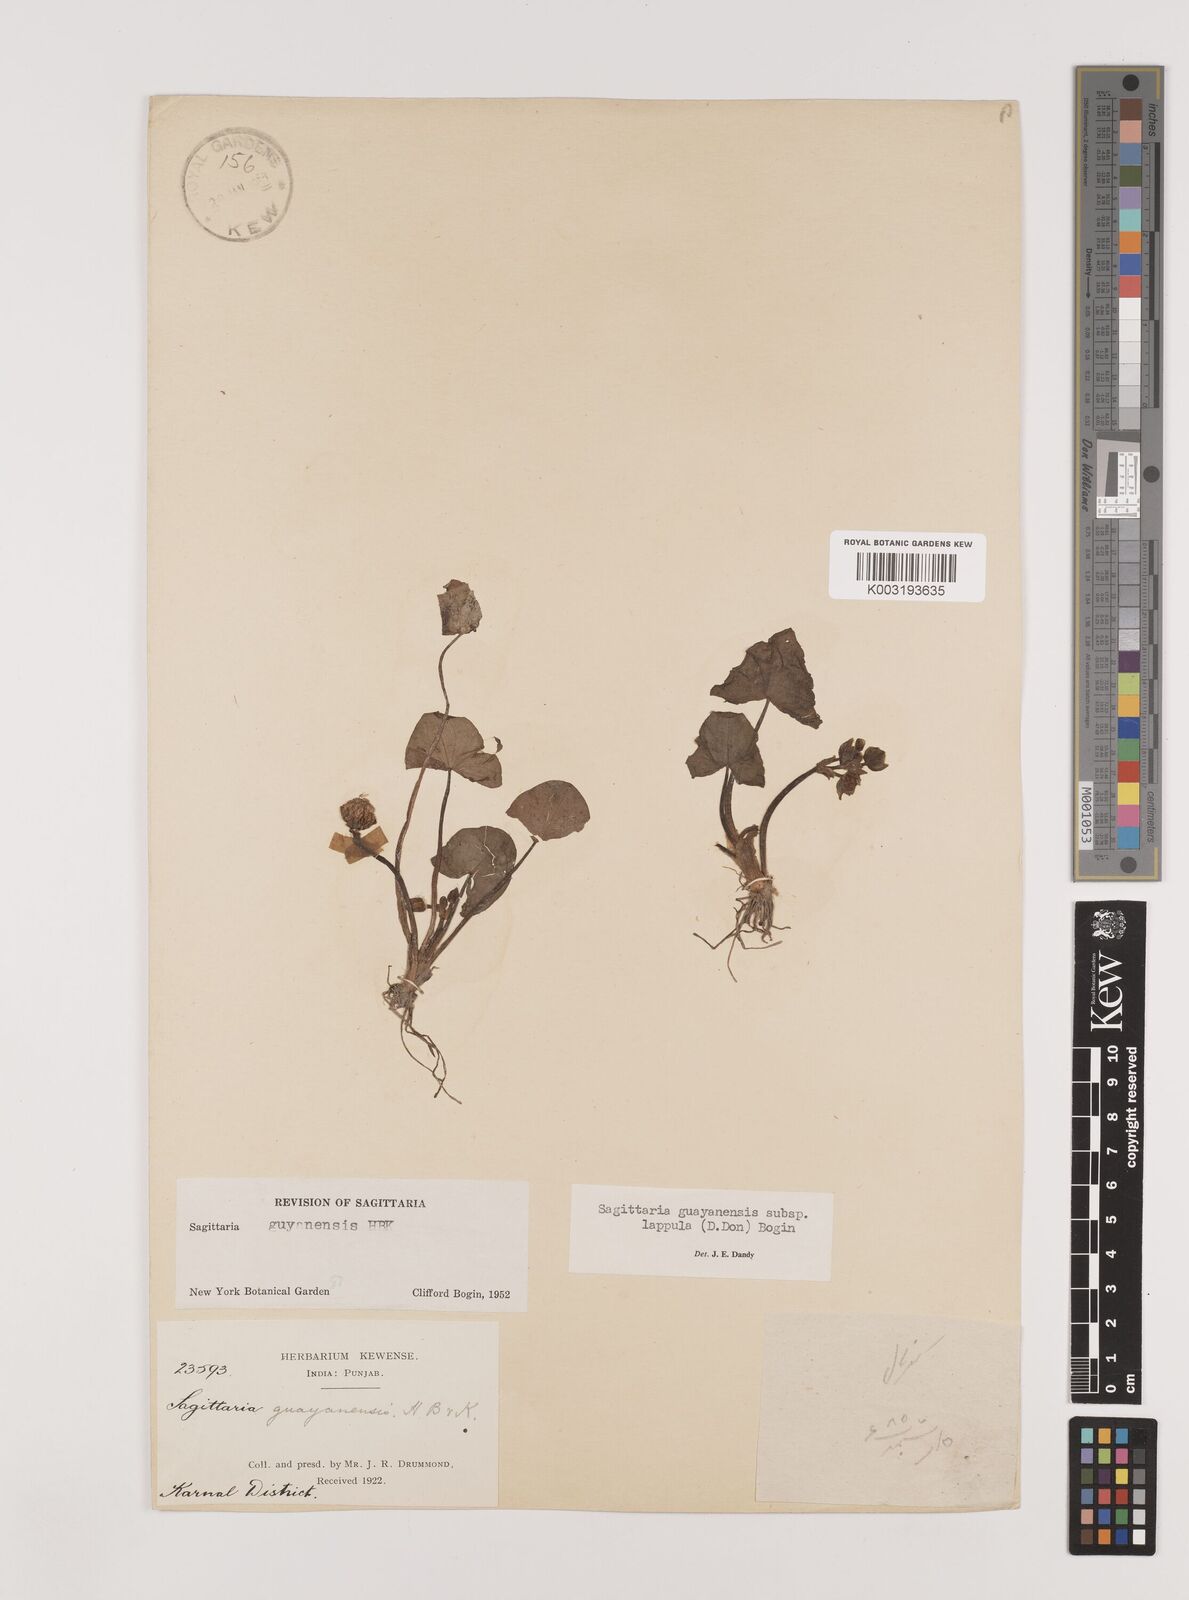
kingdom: Plantae
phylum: Tracheophyta
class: Liliopsida
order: Alismatales
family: Alismataceae
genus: Sagittaria
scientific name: Sagittaria guayanensis
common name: Guyanese arrowhead
